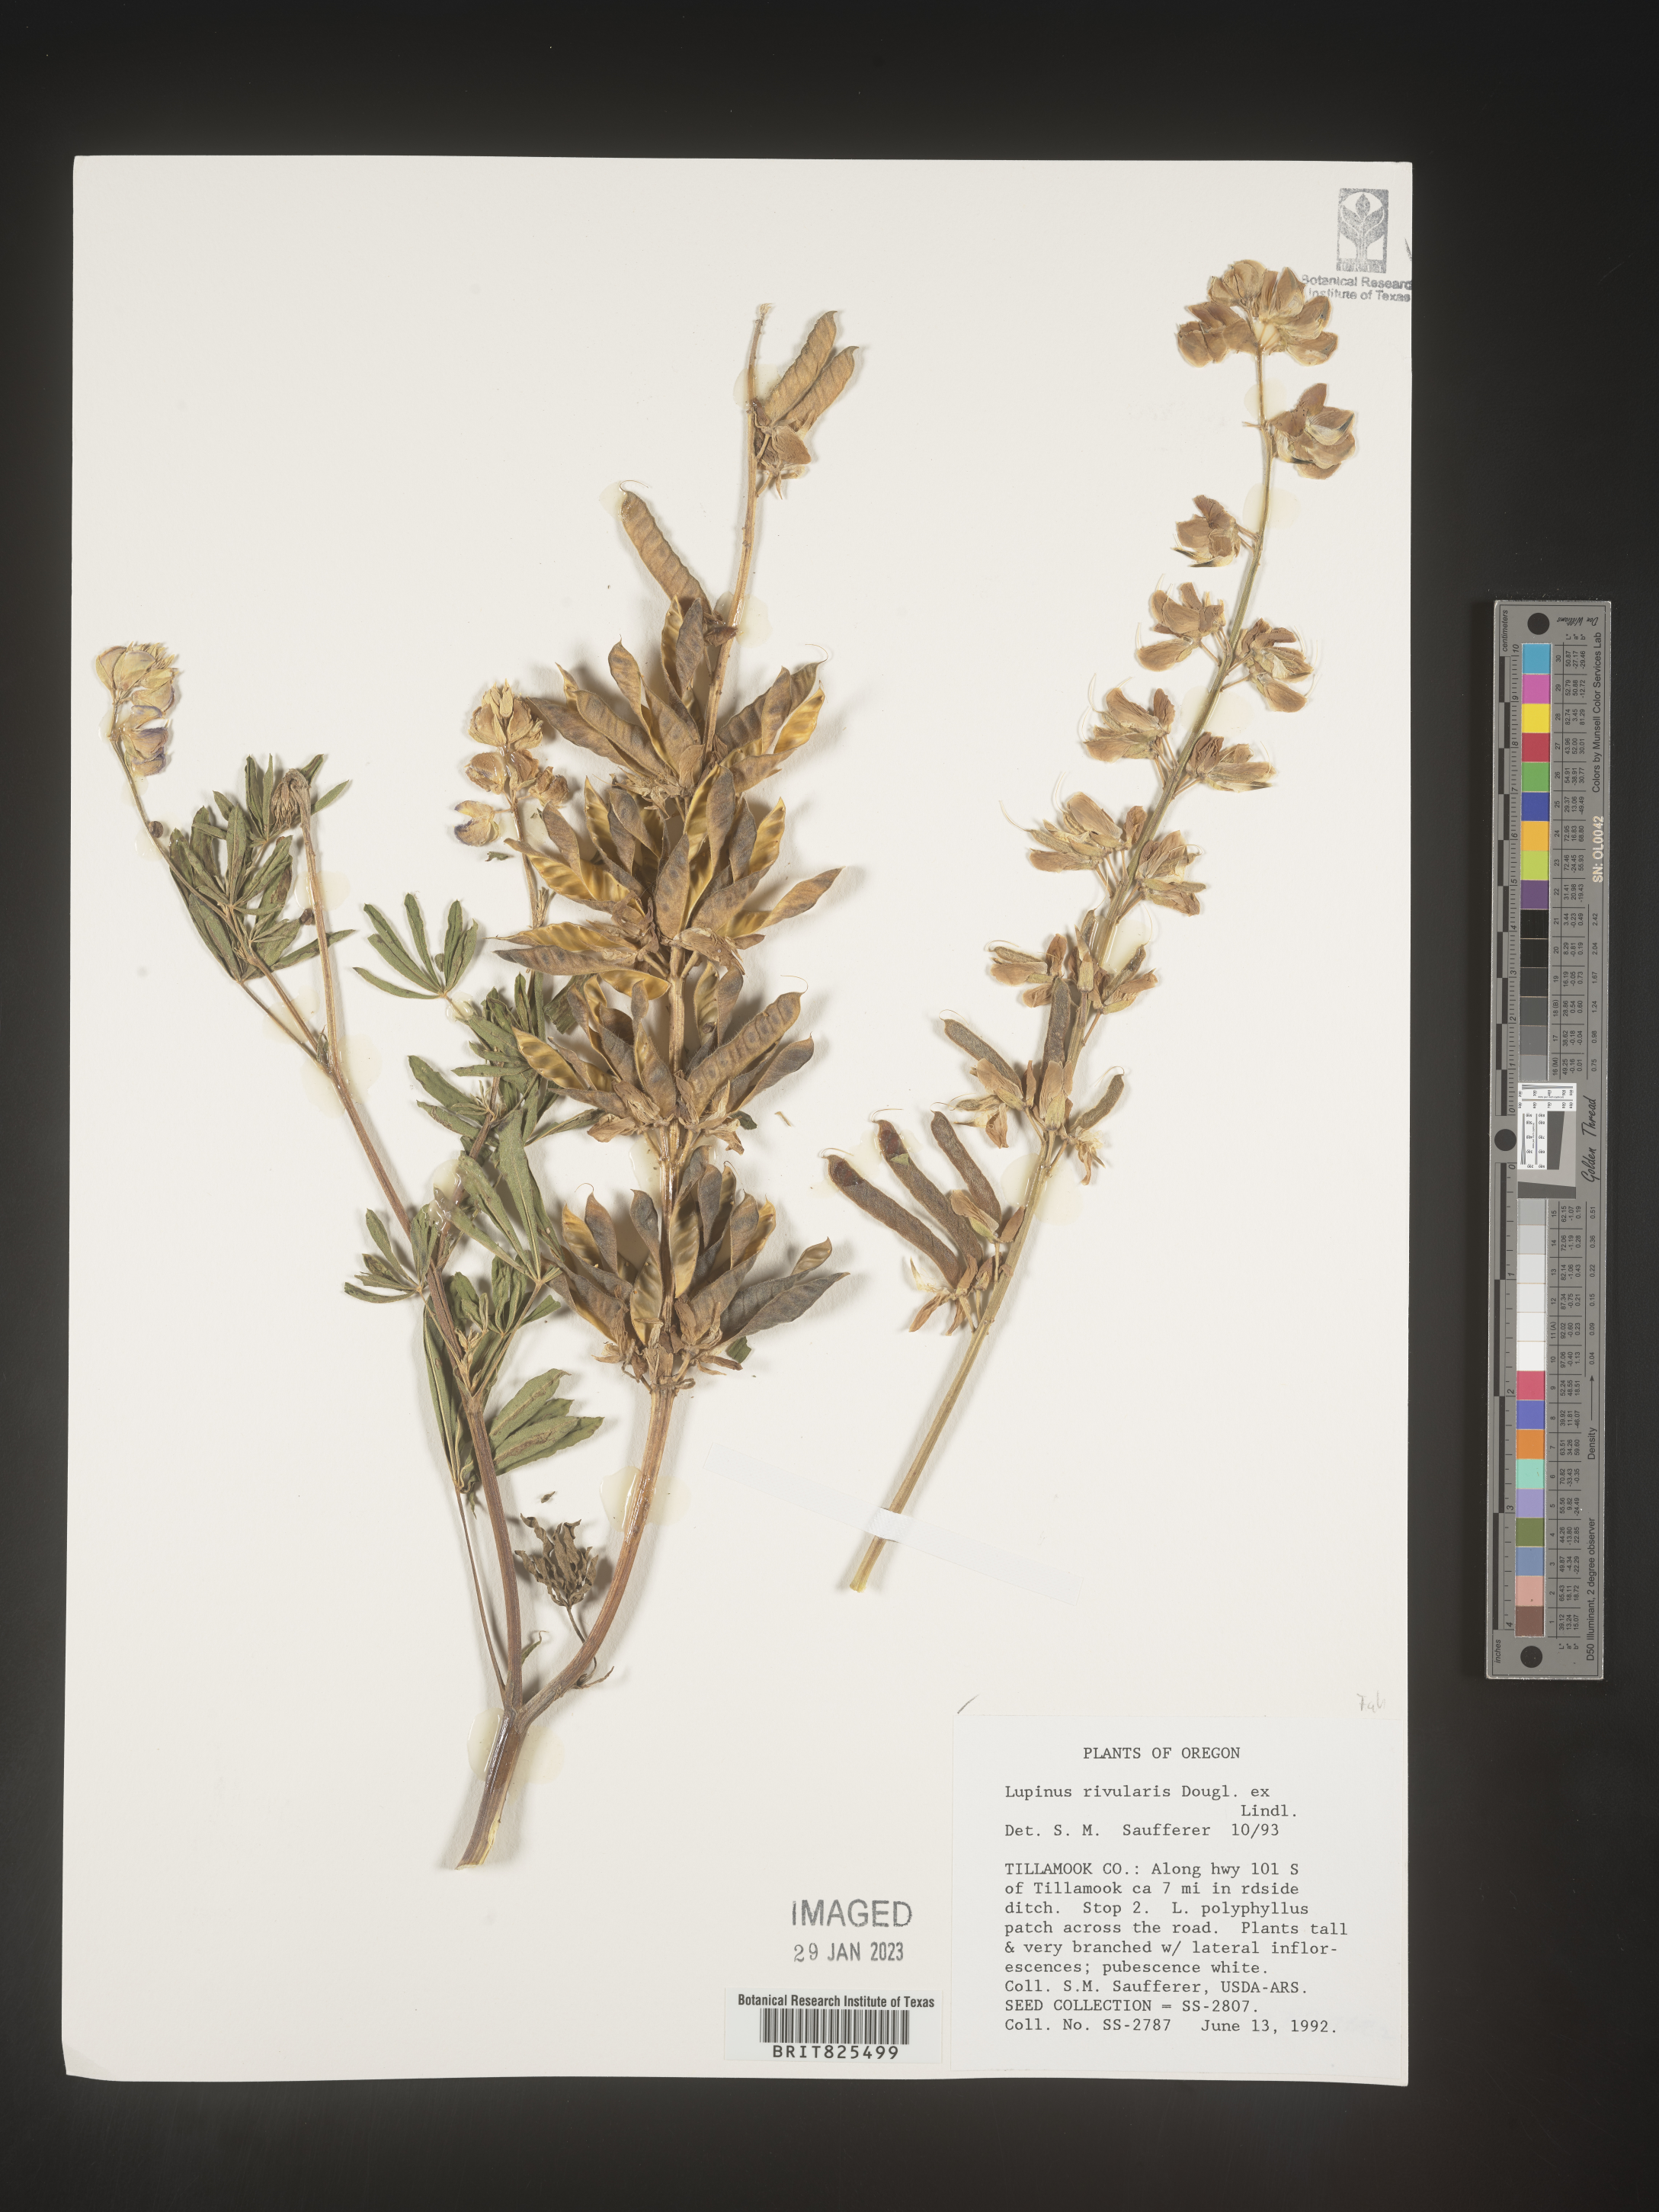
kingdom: Plantae
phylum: Tracheophyta
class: Magnoliopsida
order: Fabales
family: Fabaceae
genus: Lupinus
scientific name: Lupinus
